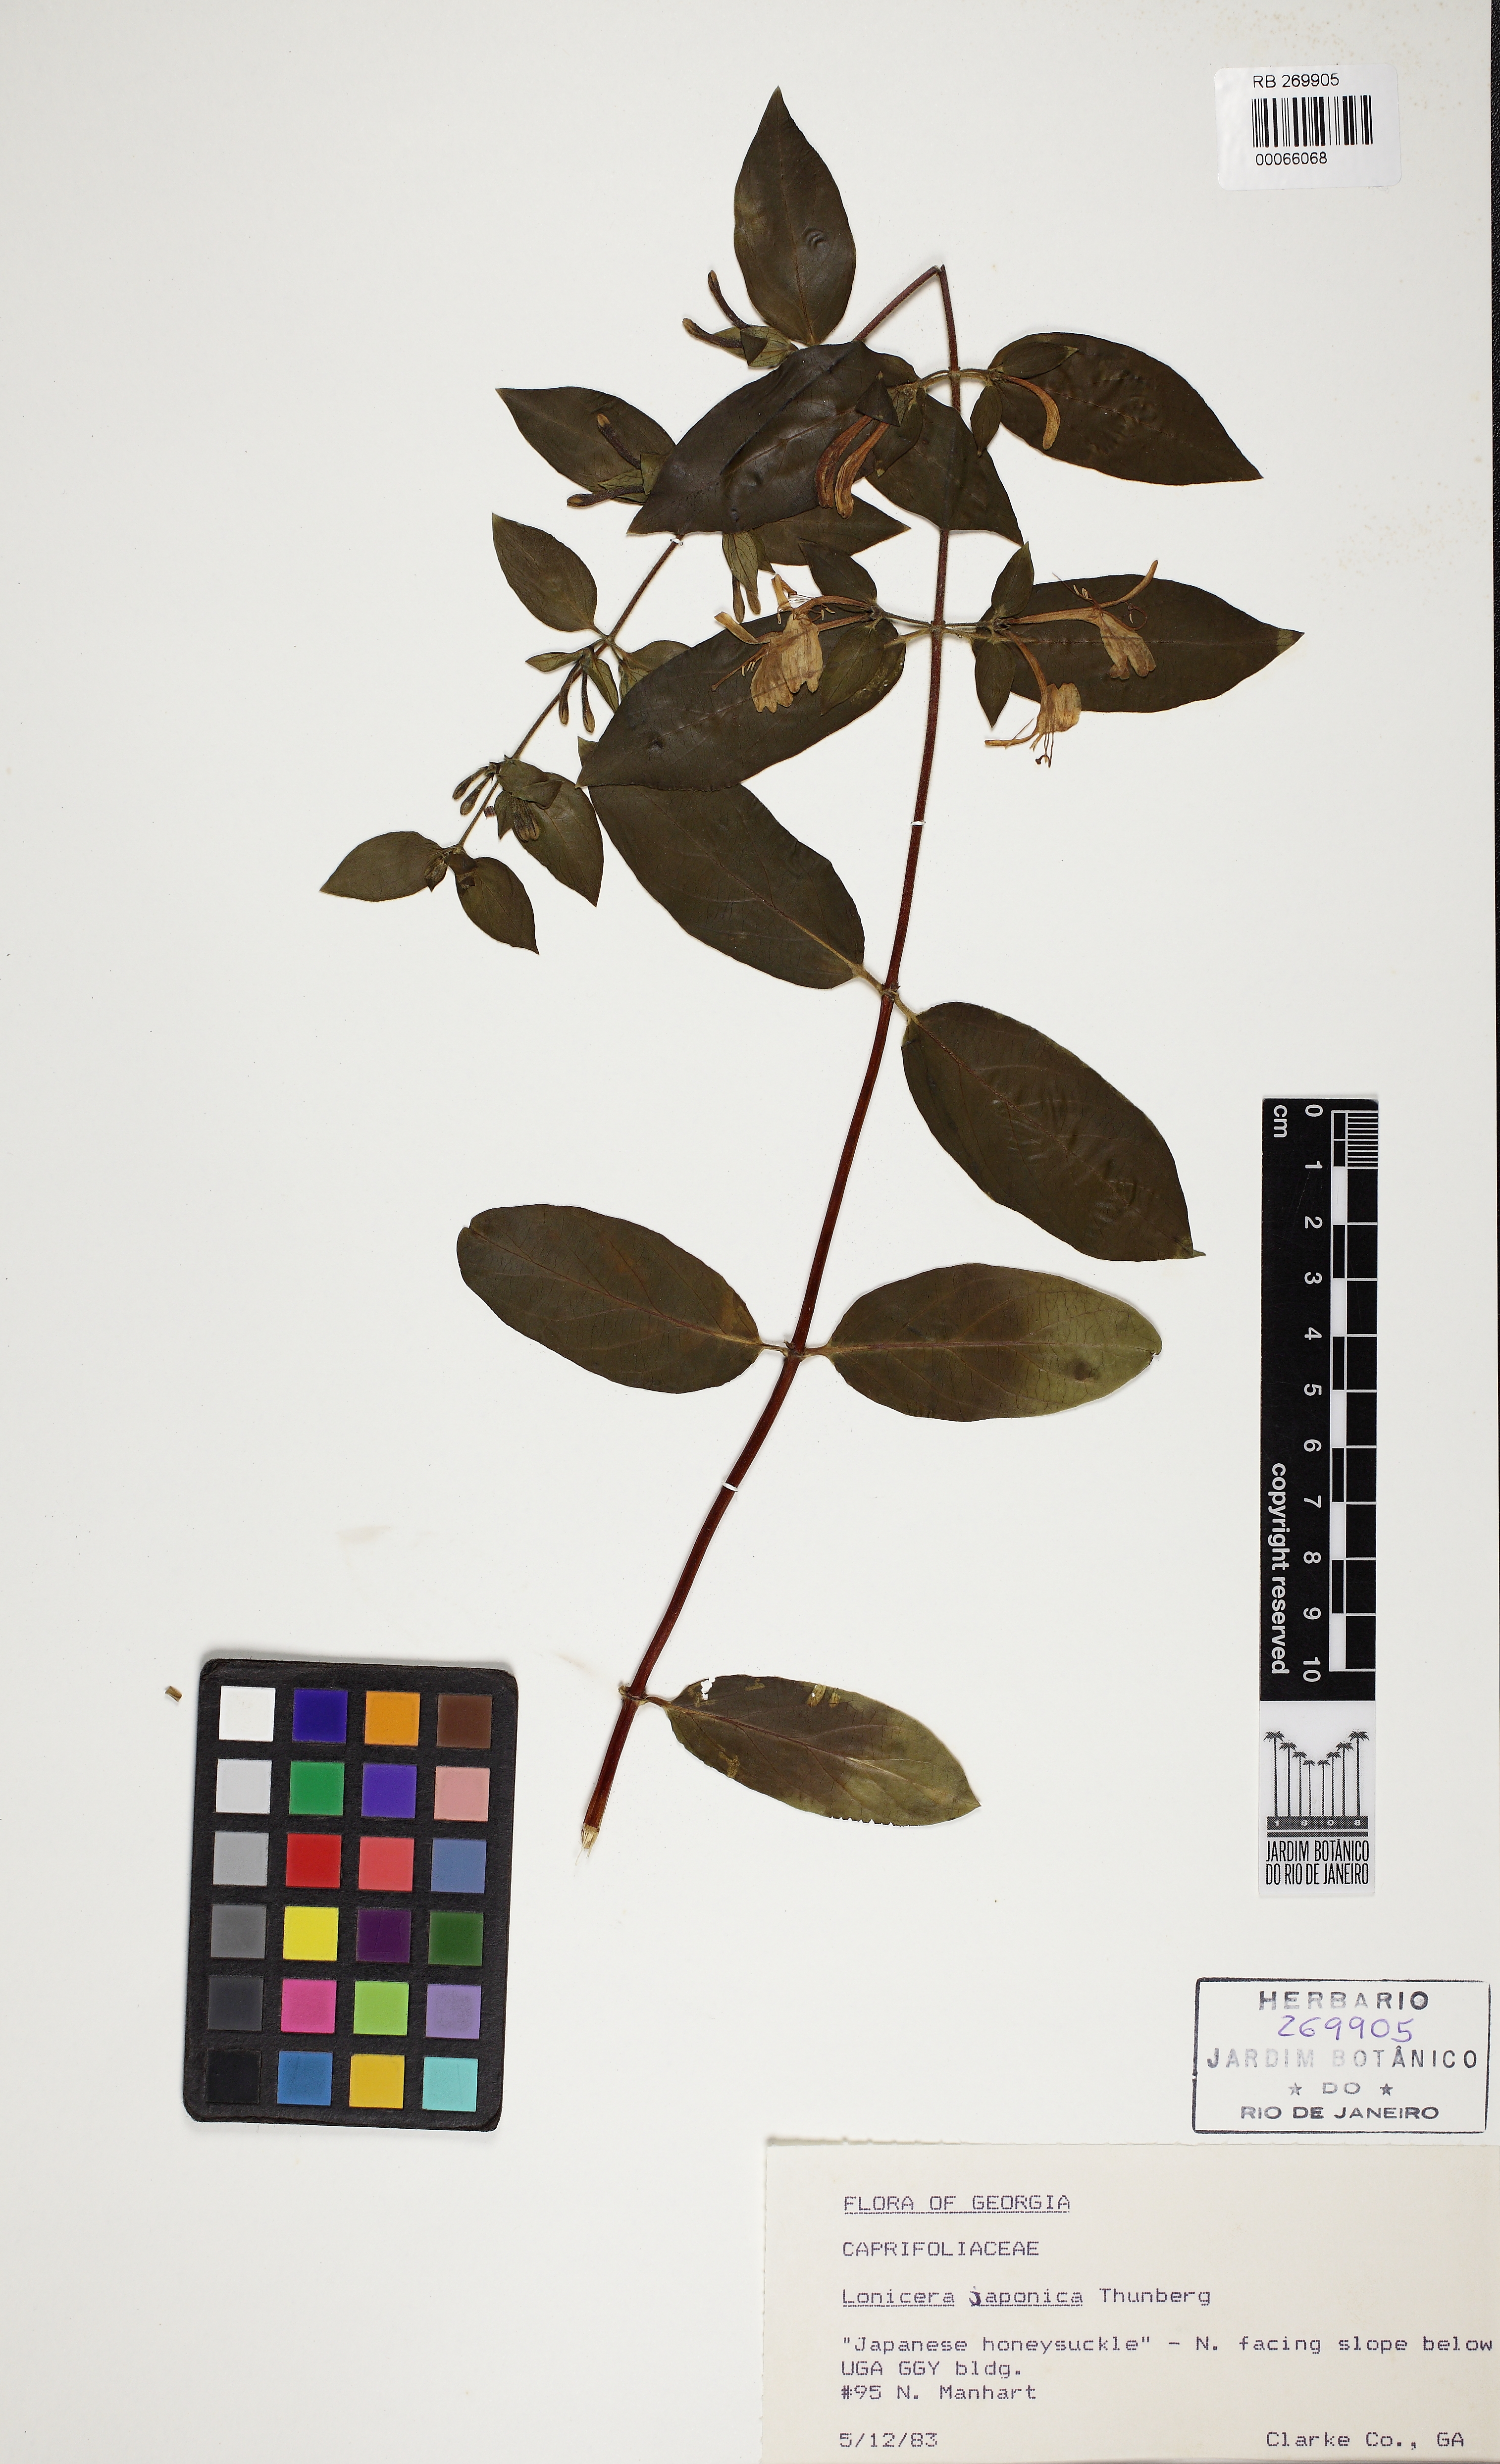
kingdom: Plantae
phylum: Tracheophyta
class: Magnoliopsida
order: Dipsacales
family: Caprifoliaceae
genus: Lonicera
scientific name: Lonicera japonica
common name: Japanese honeysuckle
